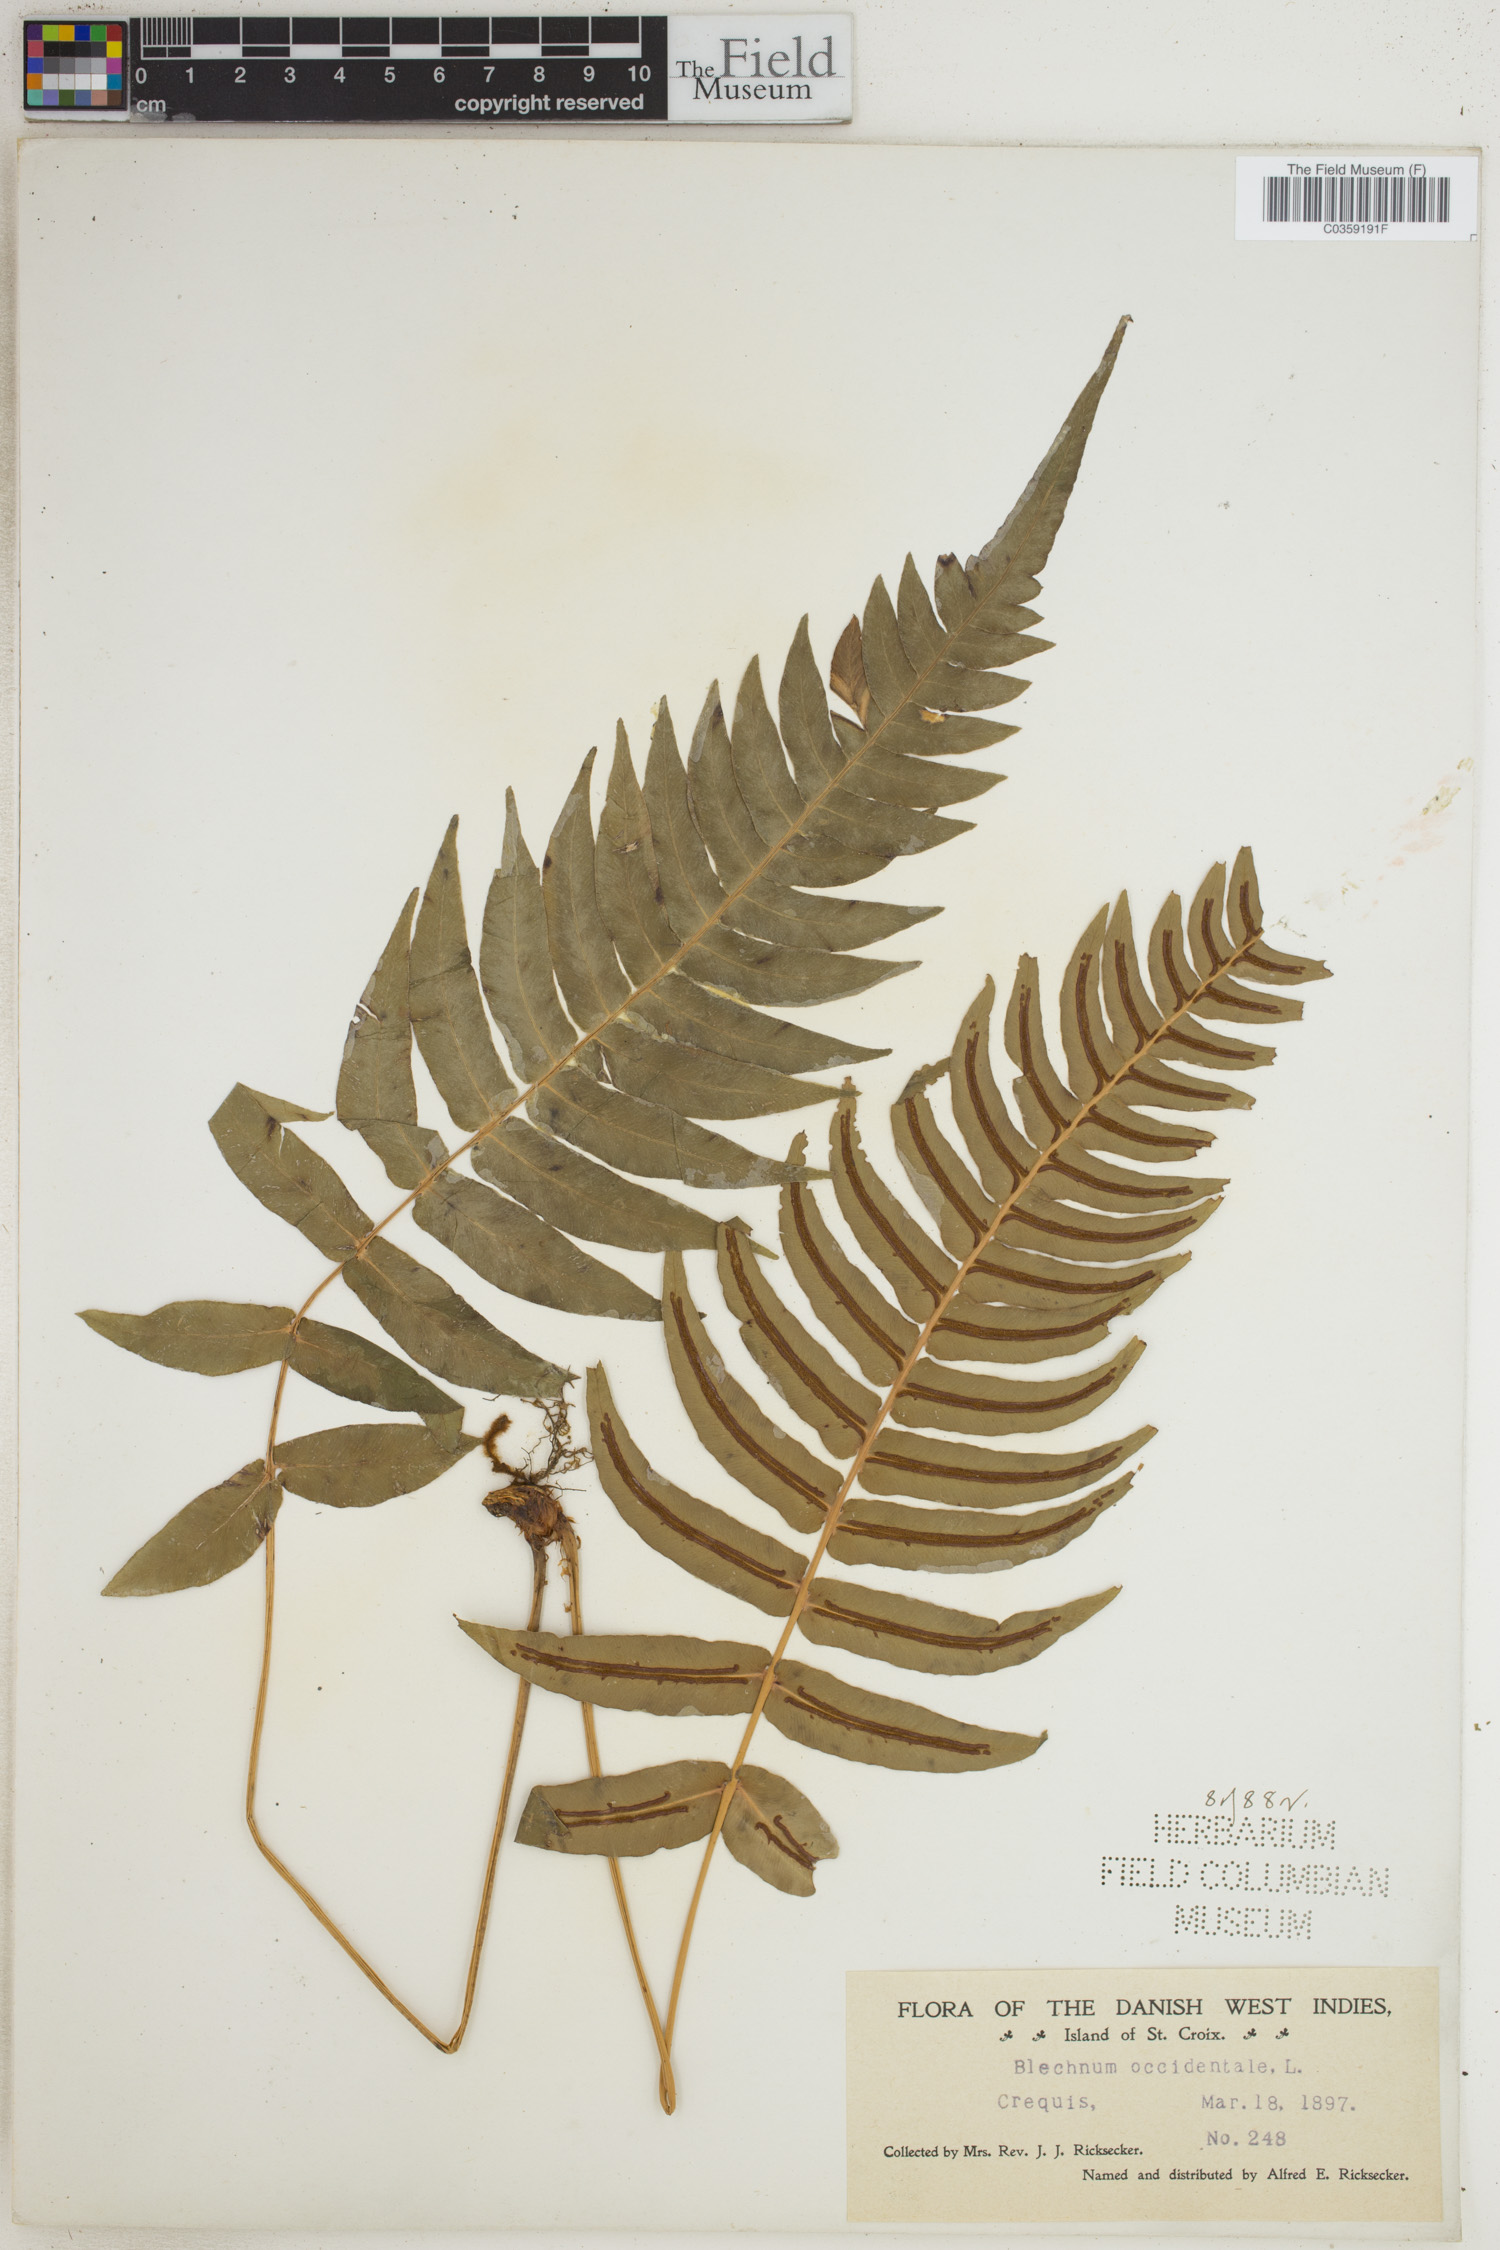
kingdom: Plantae
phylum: Tracheophyta
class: Polypodiopsida
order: Polypodiales
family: Blechnaceae
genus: Blechnum
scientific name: Blechnum occidentale
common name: Hammock fern
